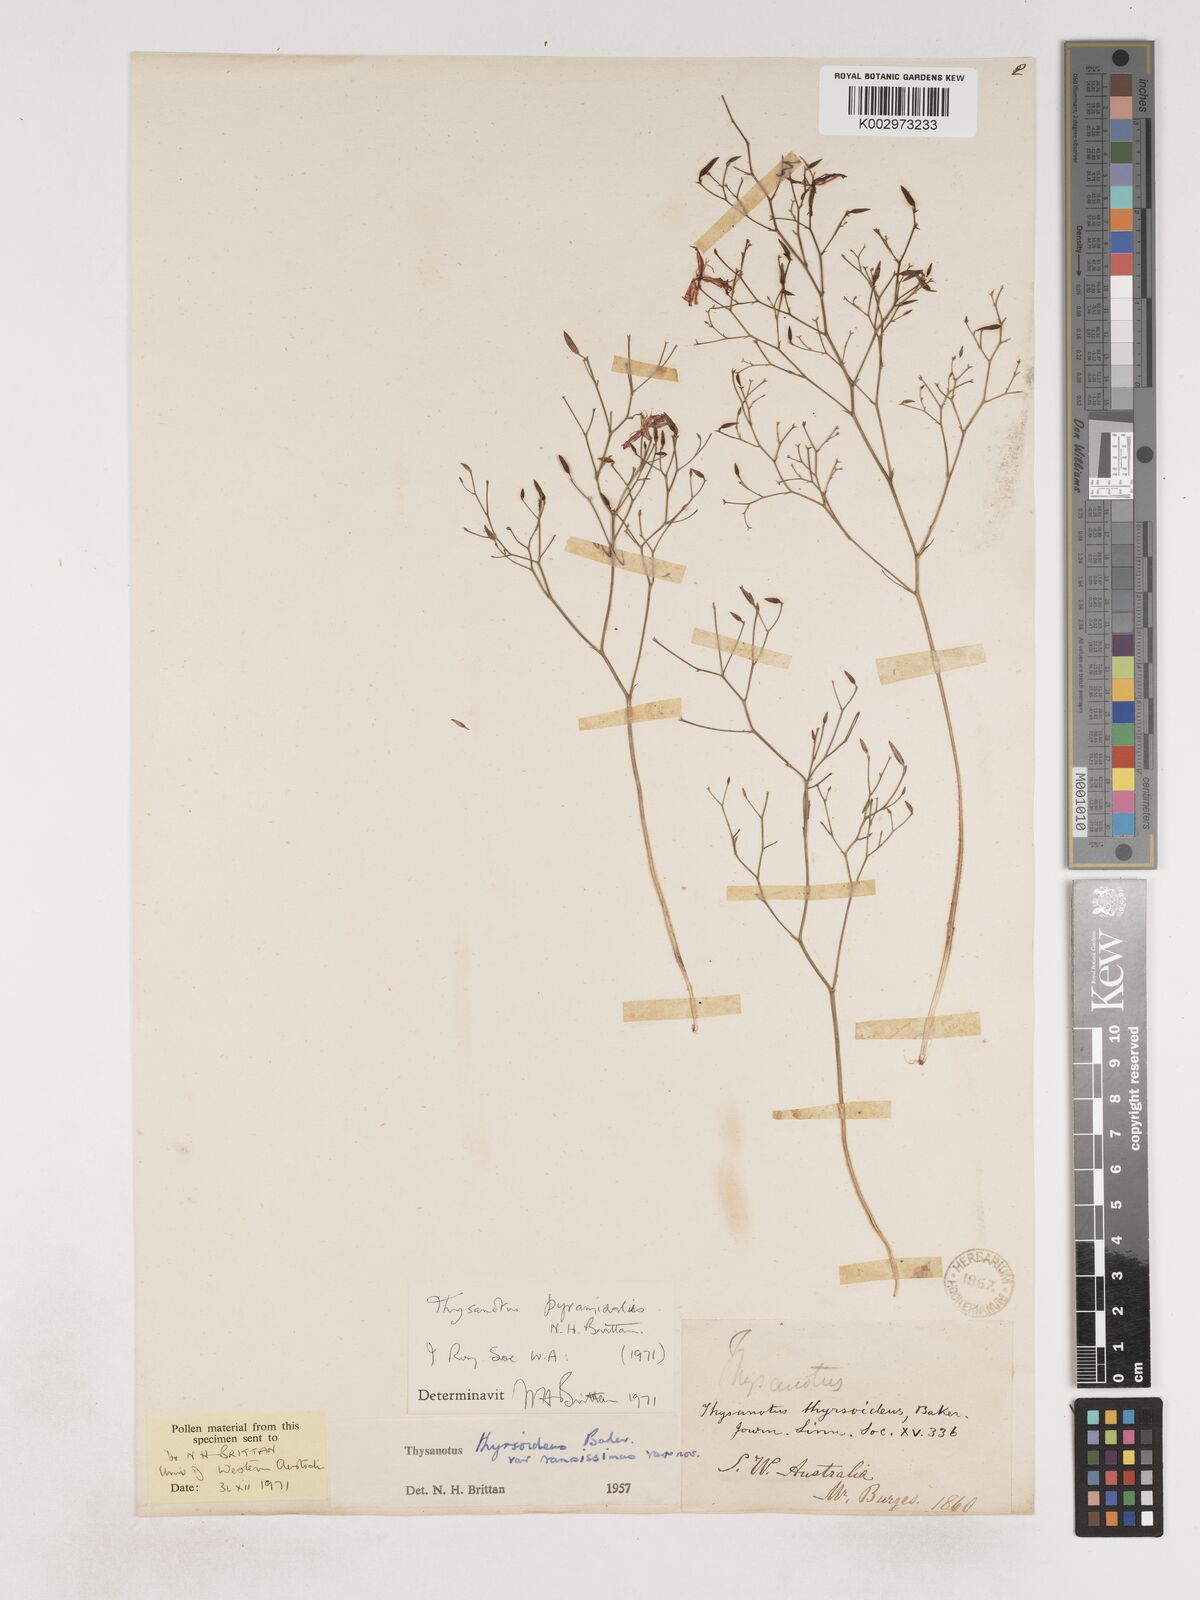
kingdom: Plantae
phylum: Tracheophyta
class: Liliopsida
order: Asparagales
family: Asparagaceae
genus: Thysanotus
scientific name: Thysanotus pyramidalis
